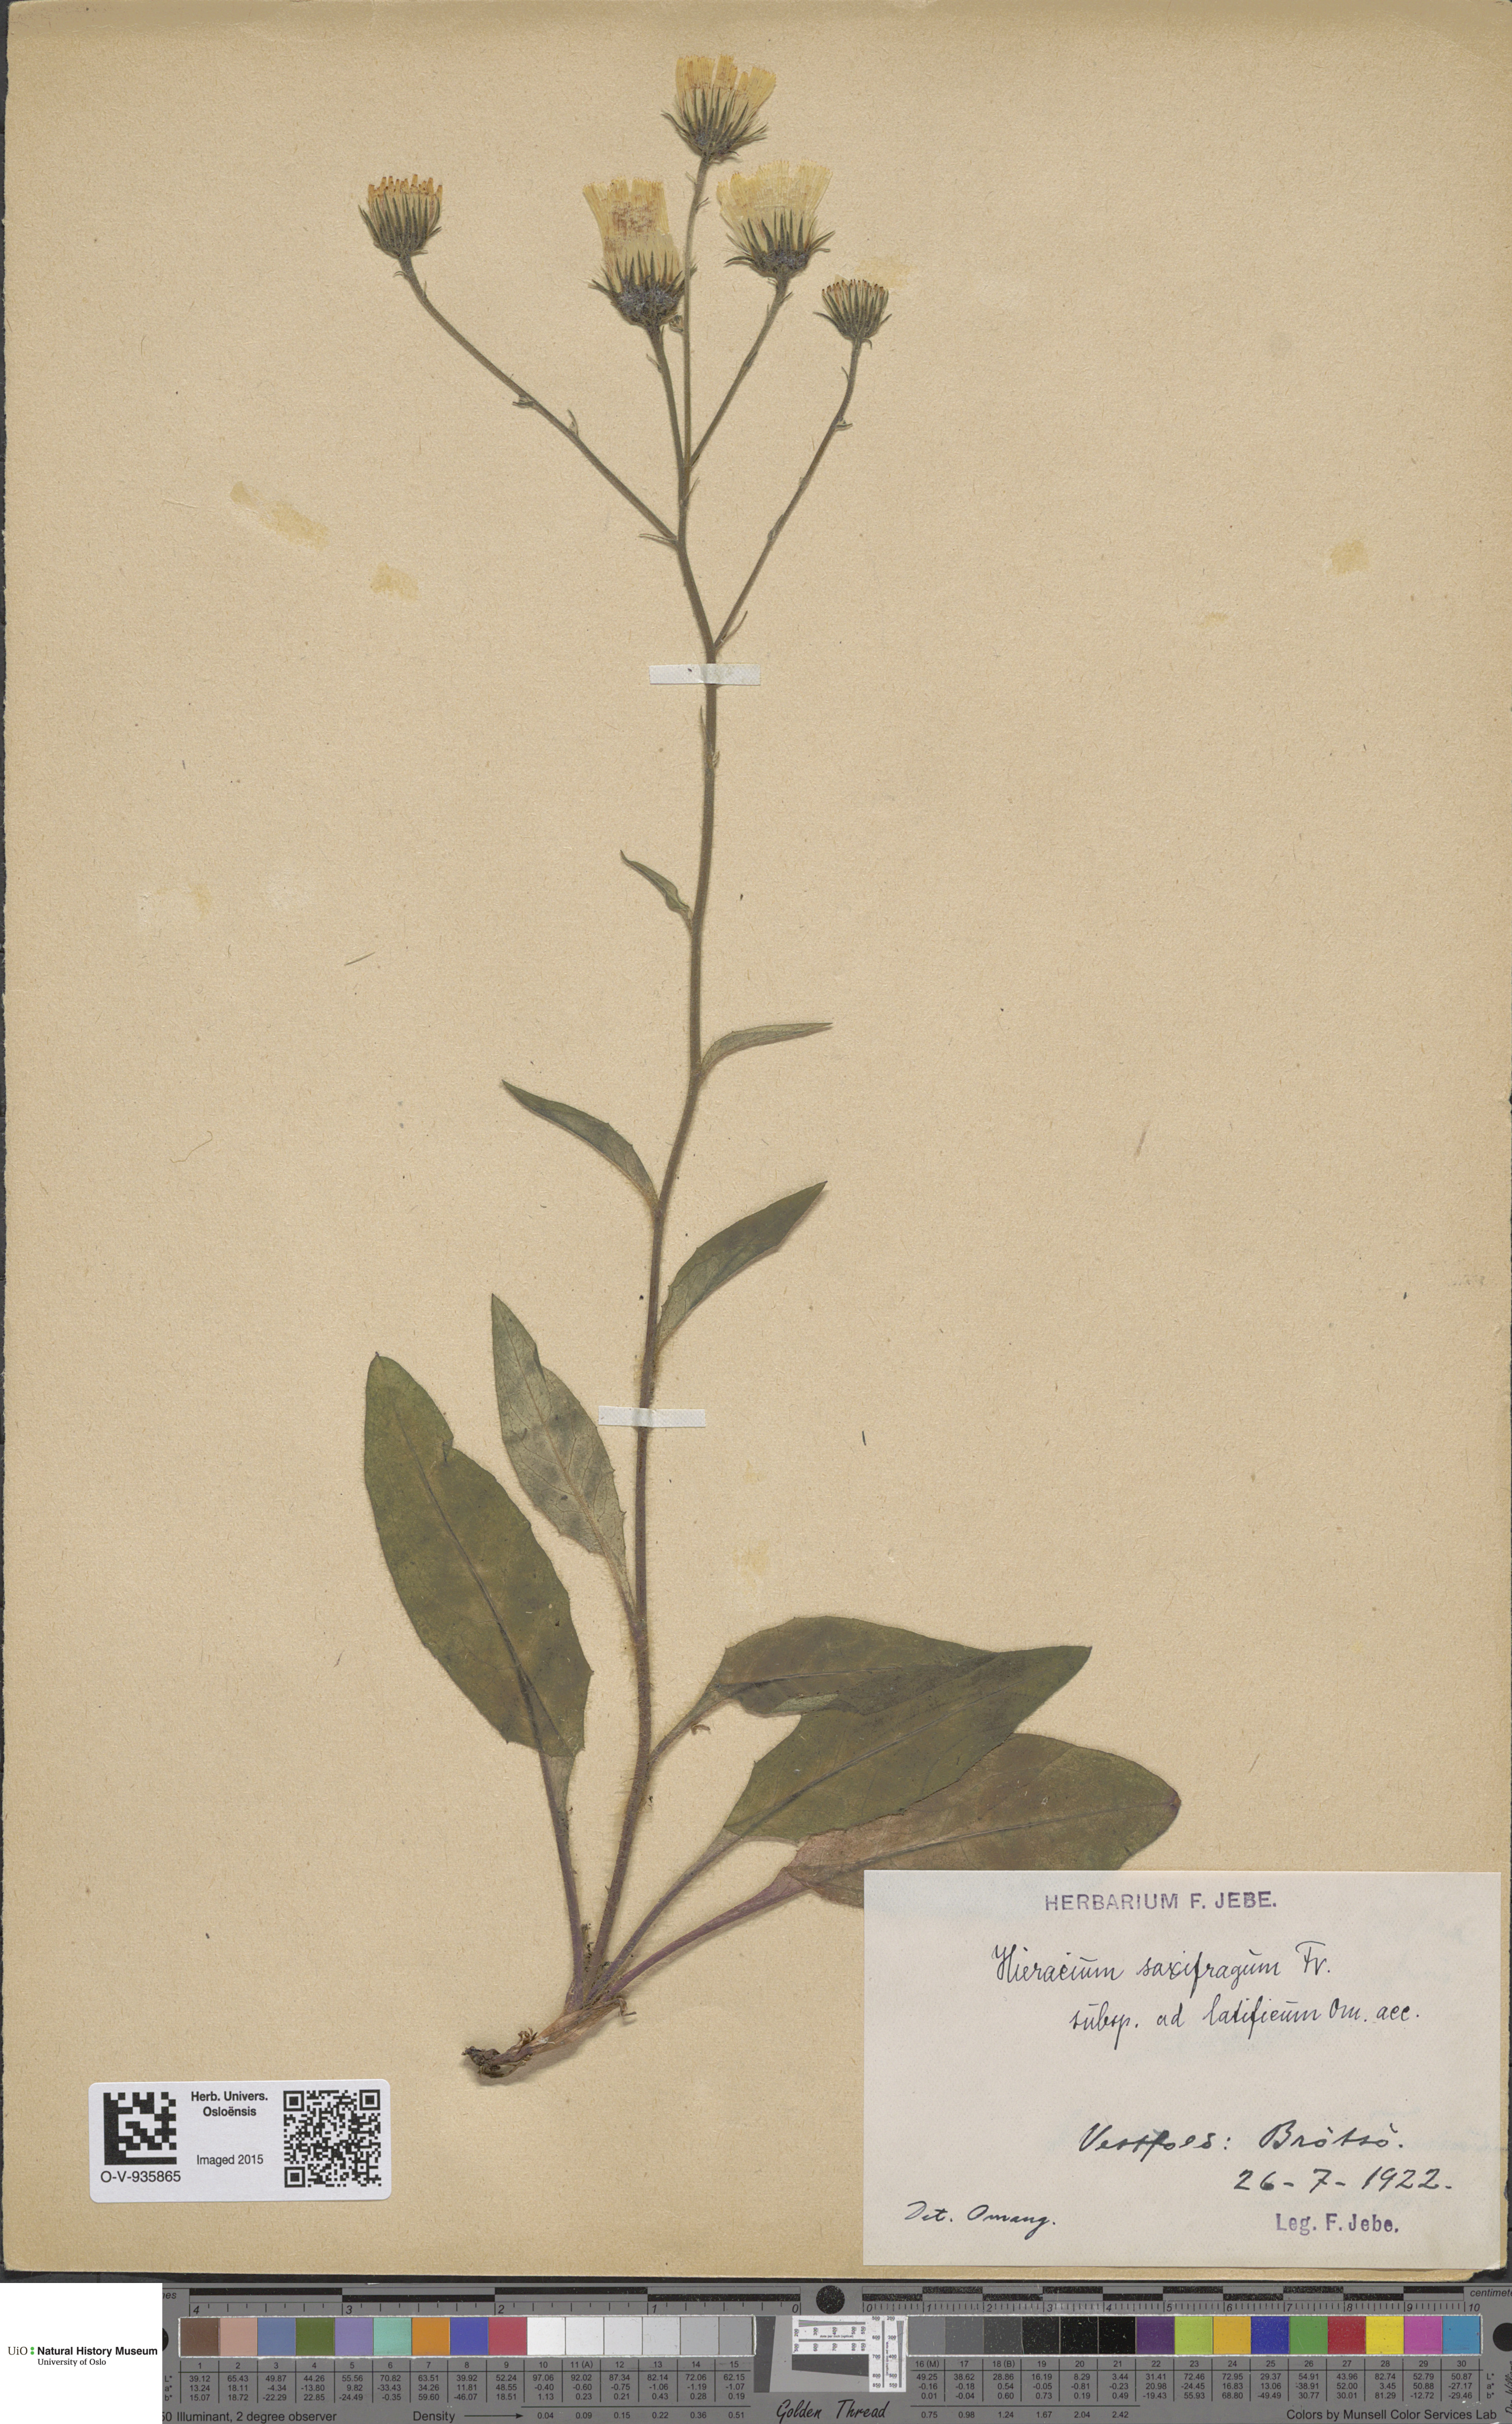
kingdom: Plantae
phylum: Tracheophyta
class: Magnoliopsida
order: Asterales
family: Asteraceae
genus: Hieracium
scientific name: Hieracium saxifragum
